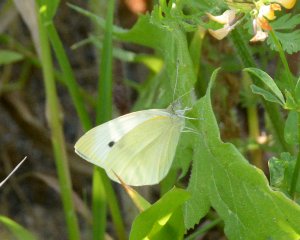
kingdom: Animalia
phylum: Arthropoda
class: Insecta
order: Lepidoptera
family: Pieridae
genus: Pieris
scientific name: Pieris rapae
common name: Cabbage White
